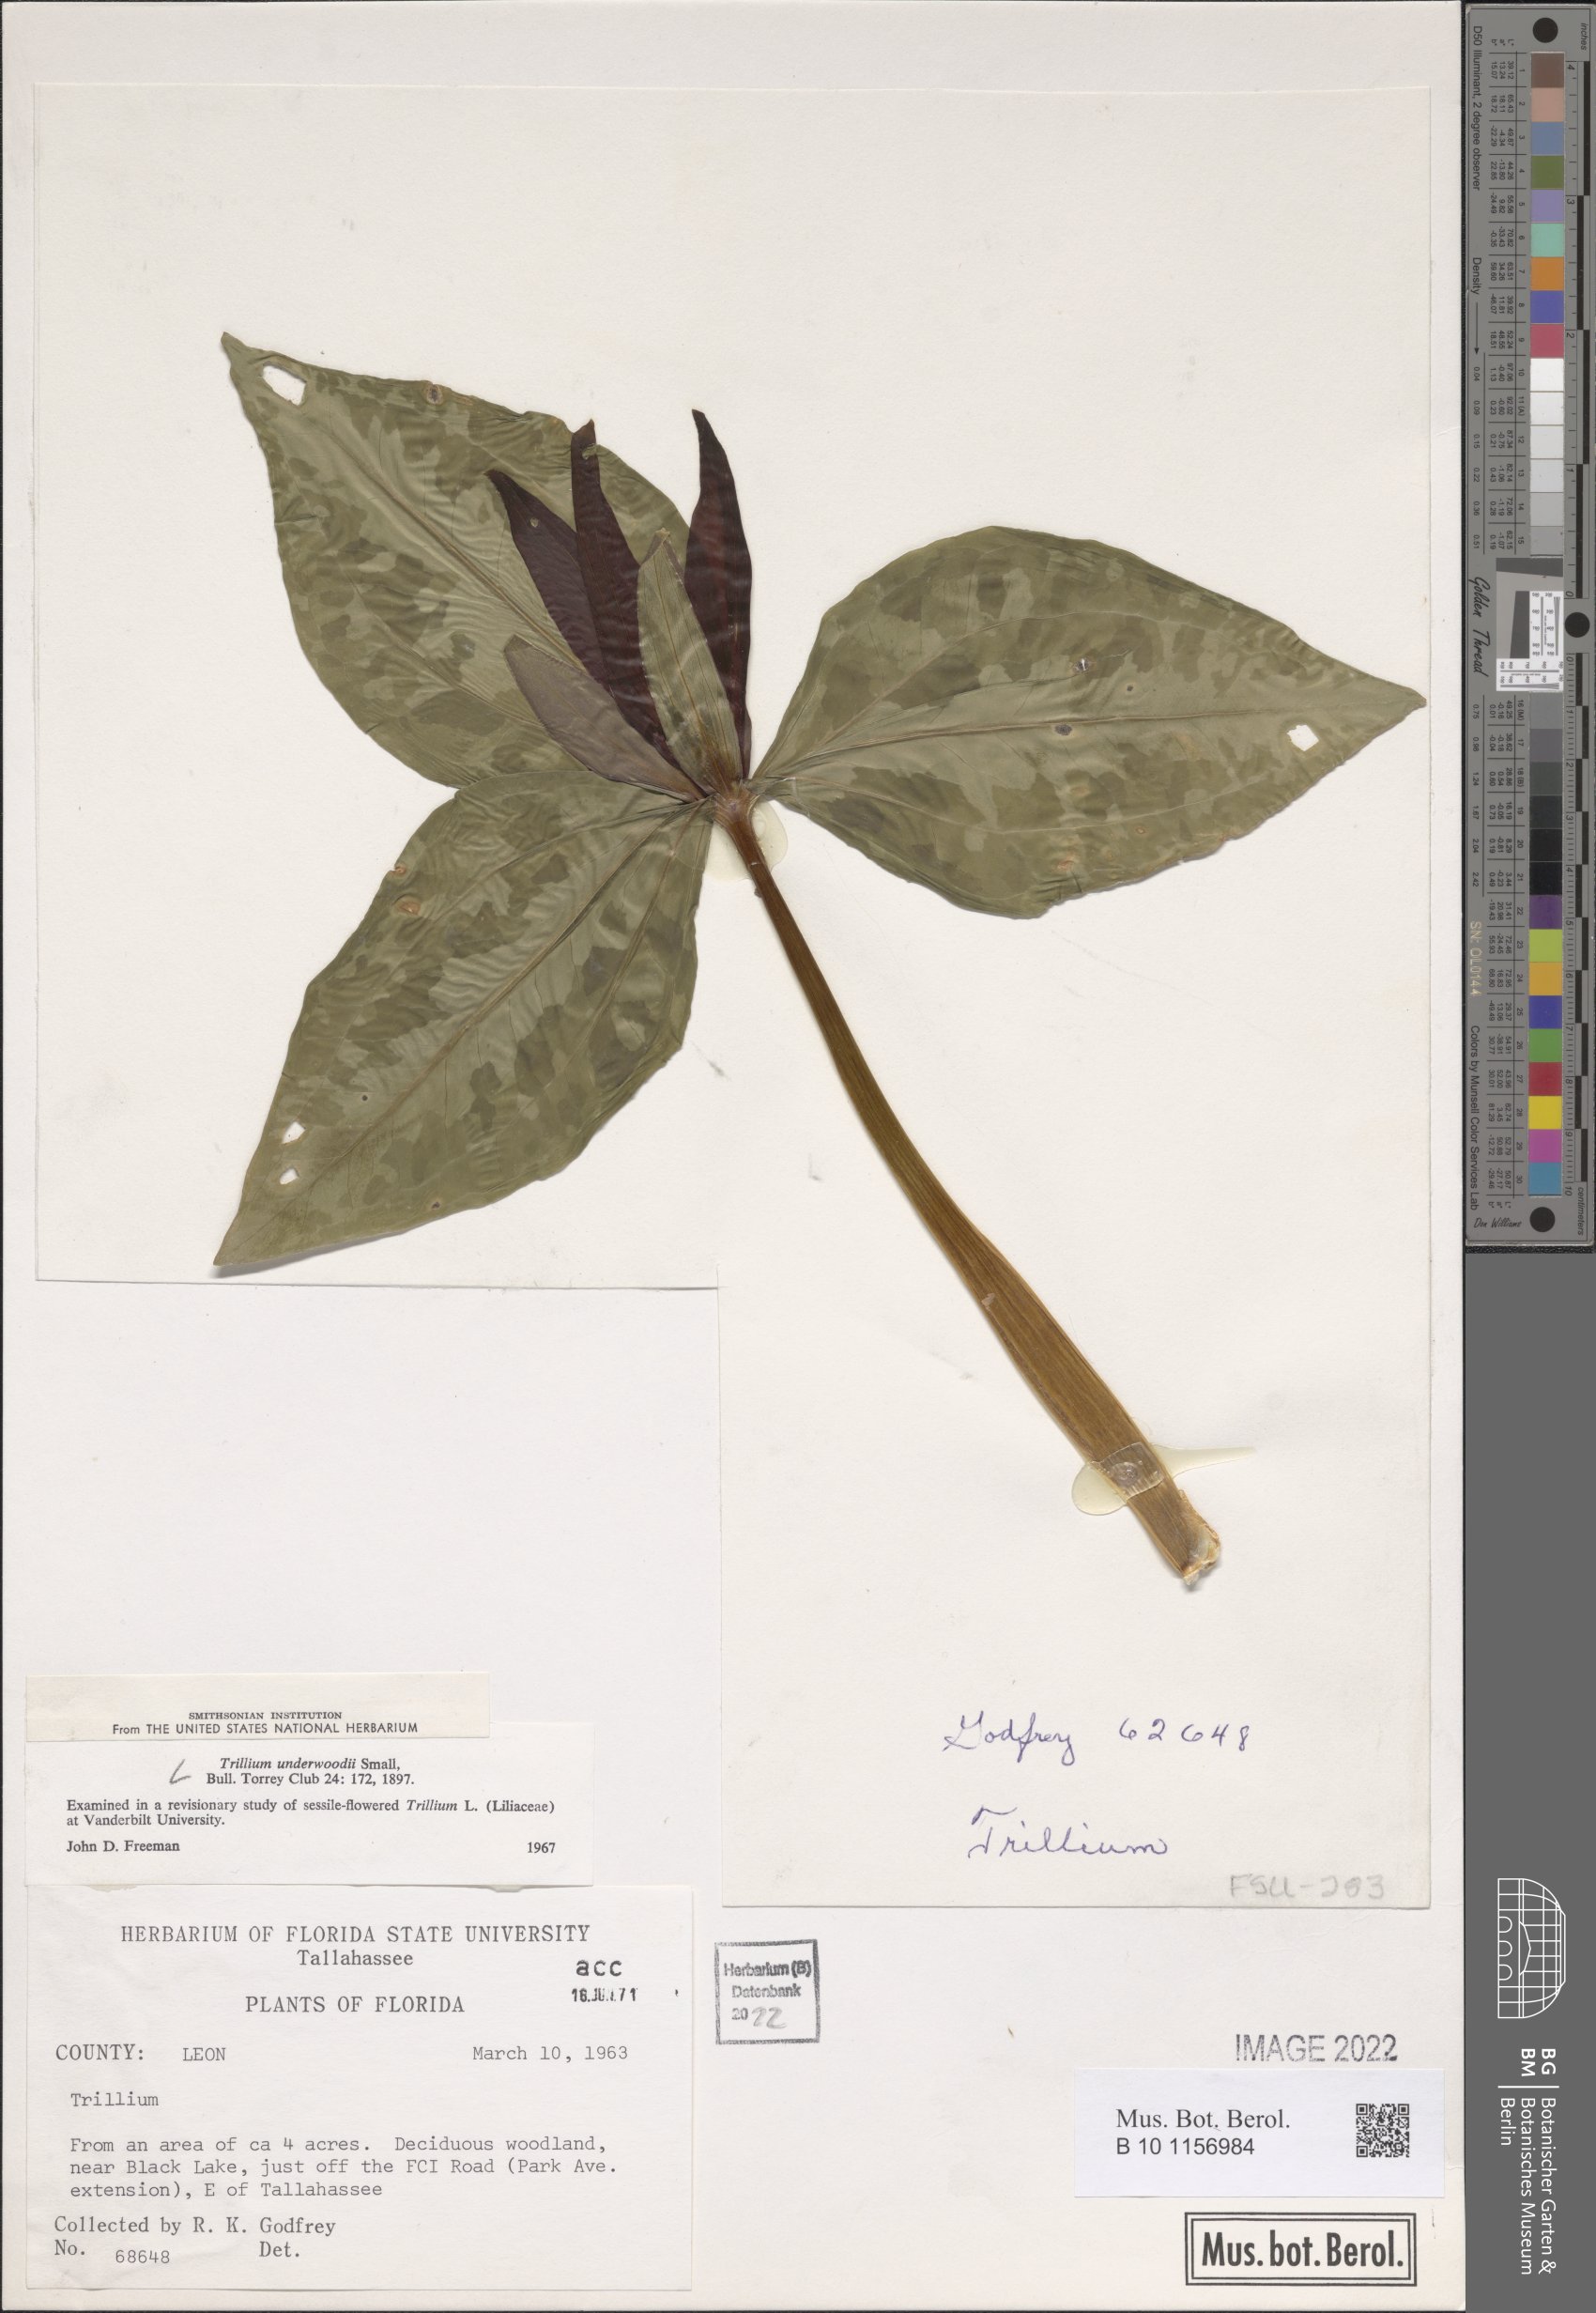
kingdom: Plantae
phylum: Tracheophyta
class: Liliopsida
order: Liliales
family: Melanthiaceae
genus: Trillium
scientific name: Trillium underwoodii
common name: Longbract wakerobin
